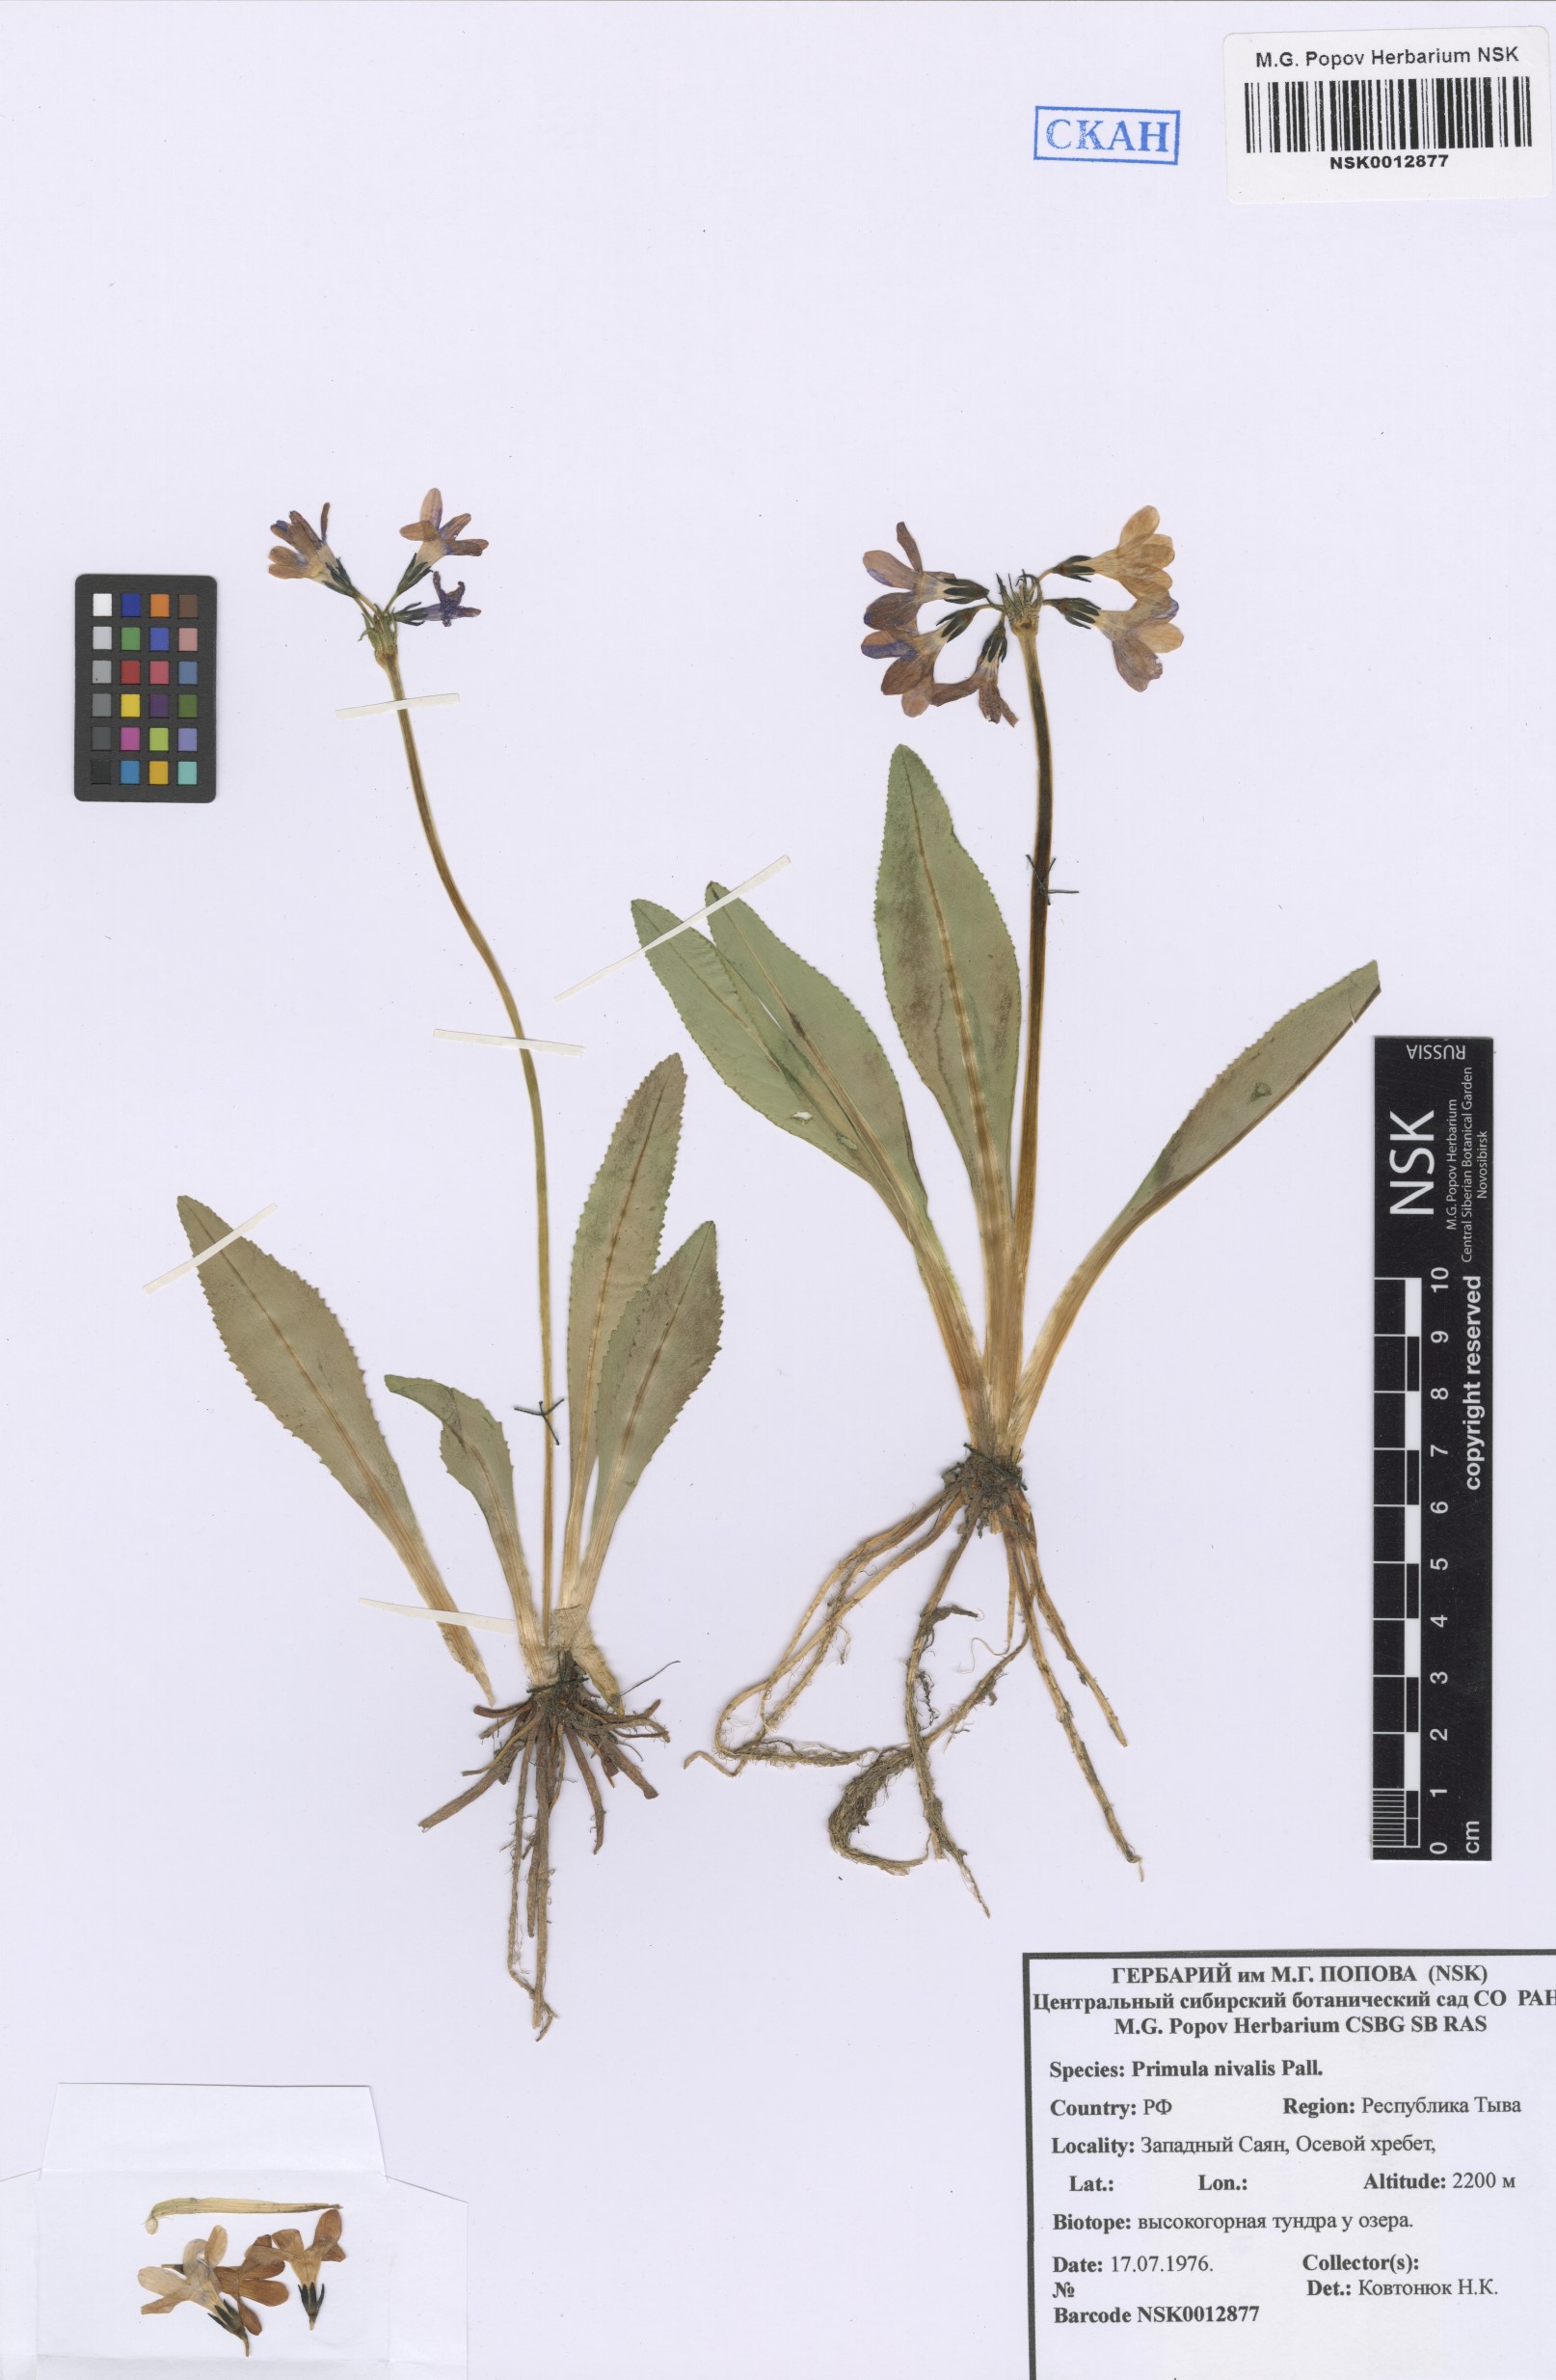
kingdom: Plantae
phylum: Tracheophyta
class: Magnoliopsida
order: Ericales
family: Primulaceae
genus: Primula
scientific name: Primula nivalis
